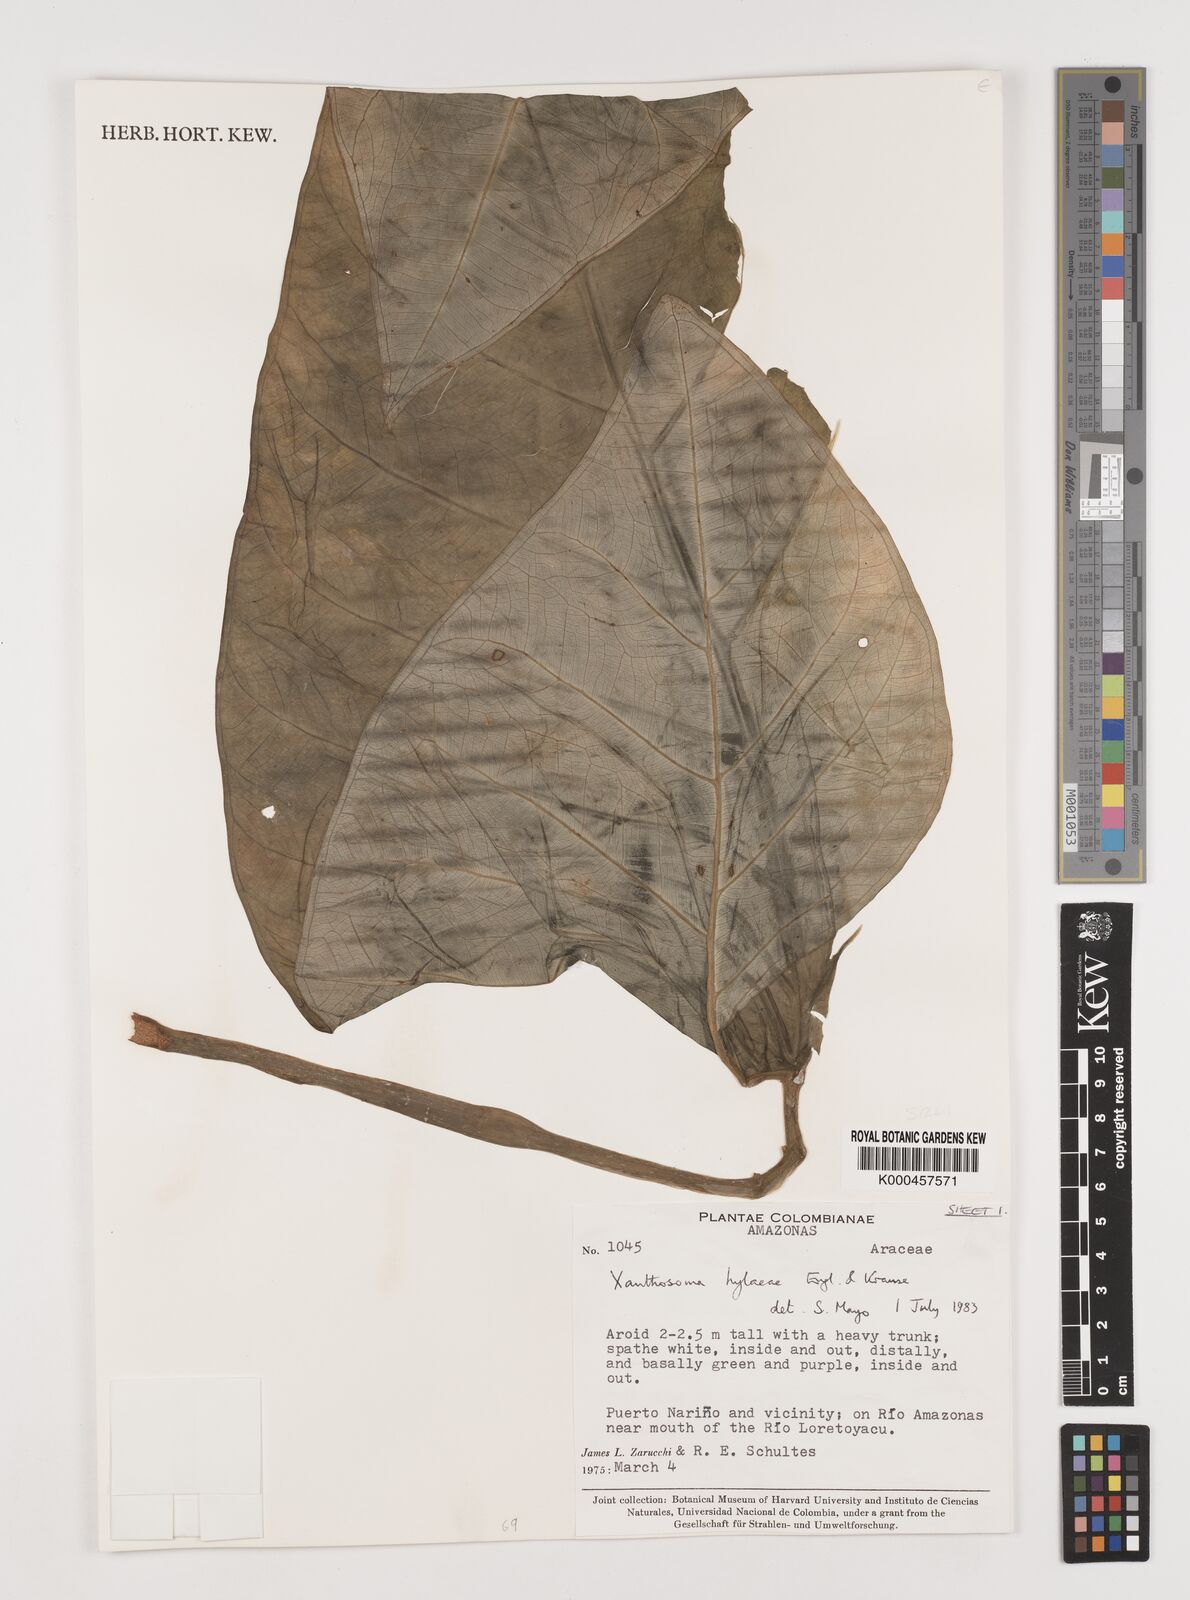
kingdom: Plantae
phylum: Tracheophyta
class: Liliopsida
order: Alismatales
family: Araceae
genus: Xanthosoma
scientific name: Xanthosoma hylaeae
